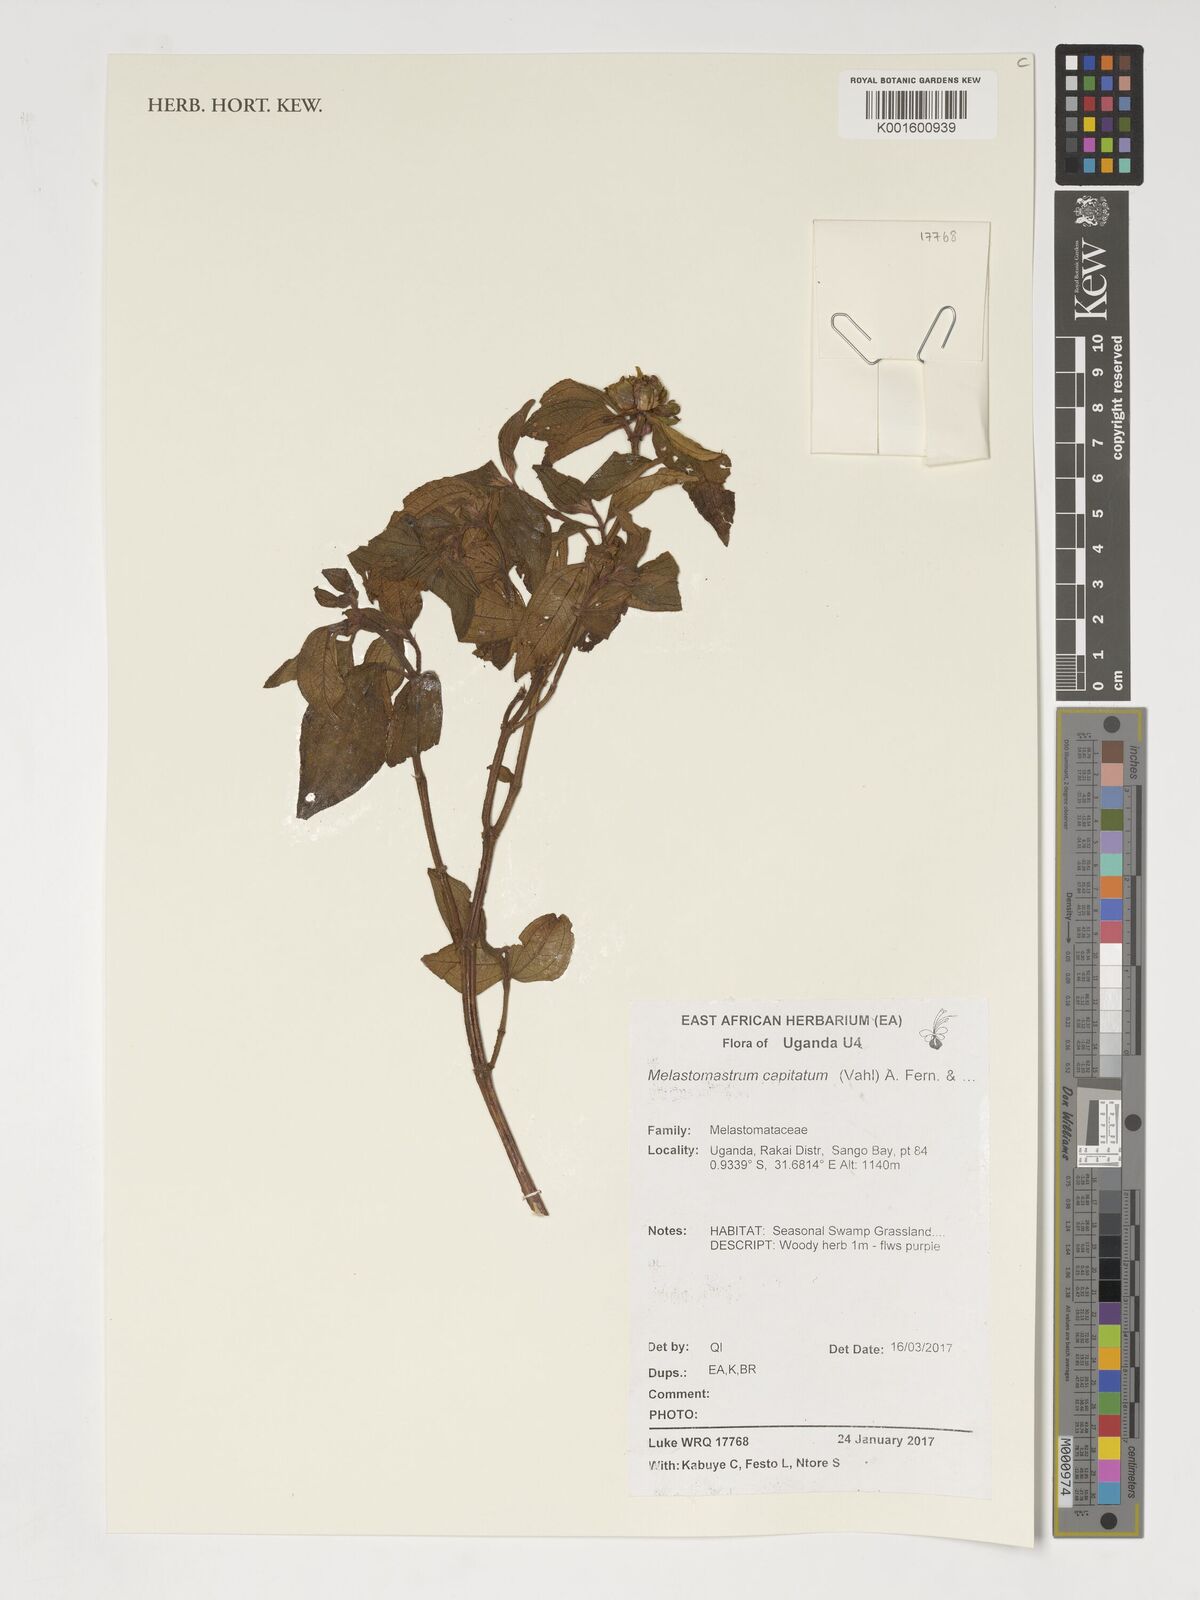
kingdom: Plantae
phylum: Tracheophyta
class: Magnoliopsida
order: Myrtales
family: Melastomataceae
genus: Melastomastrum
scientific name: Melastomastrum capitatum
